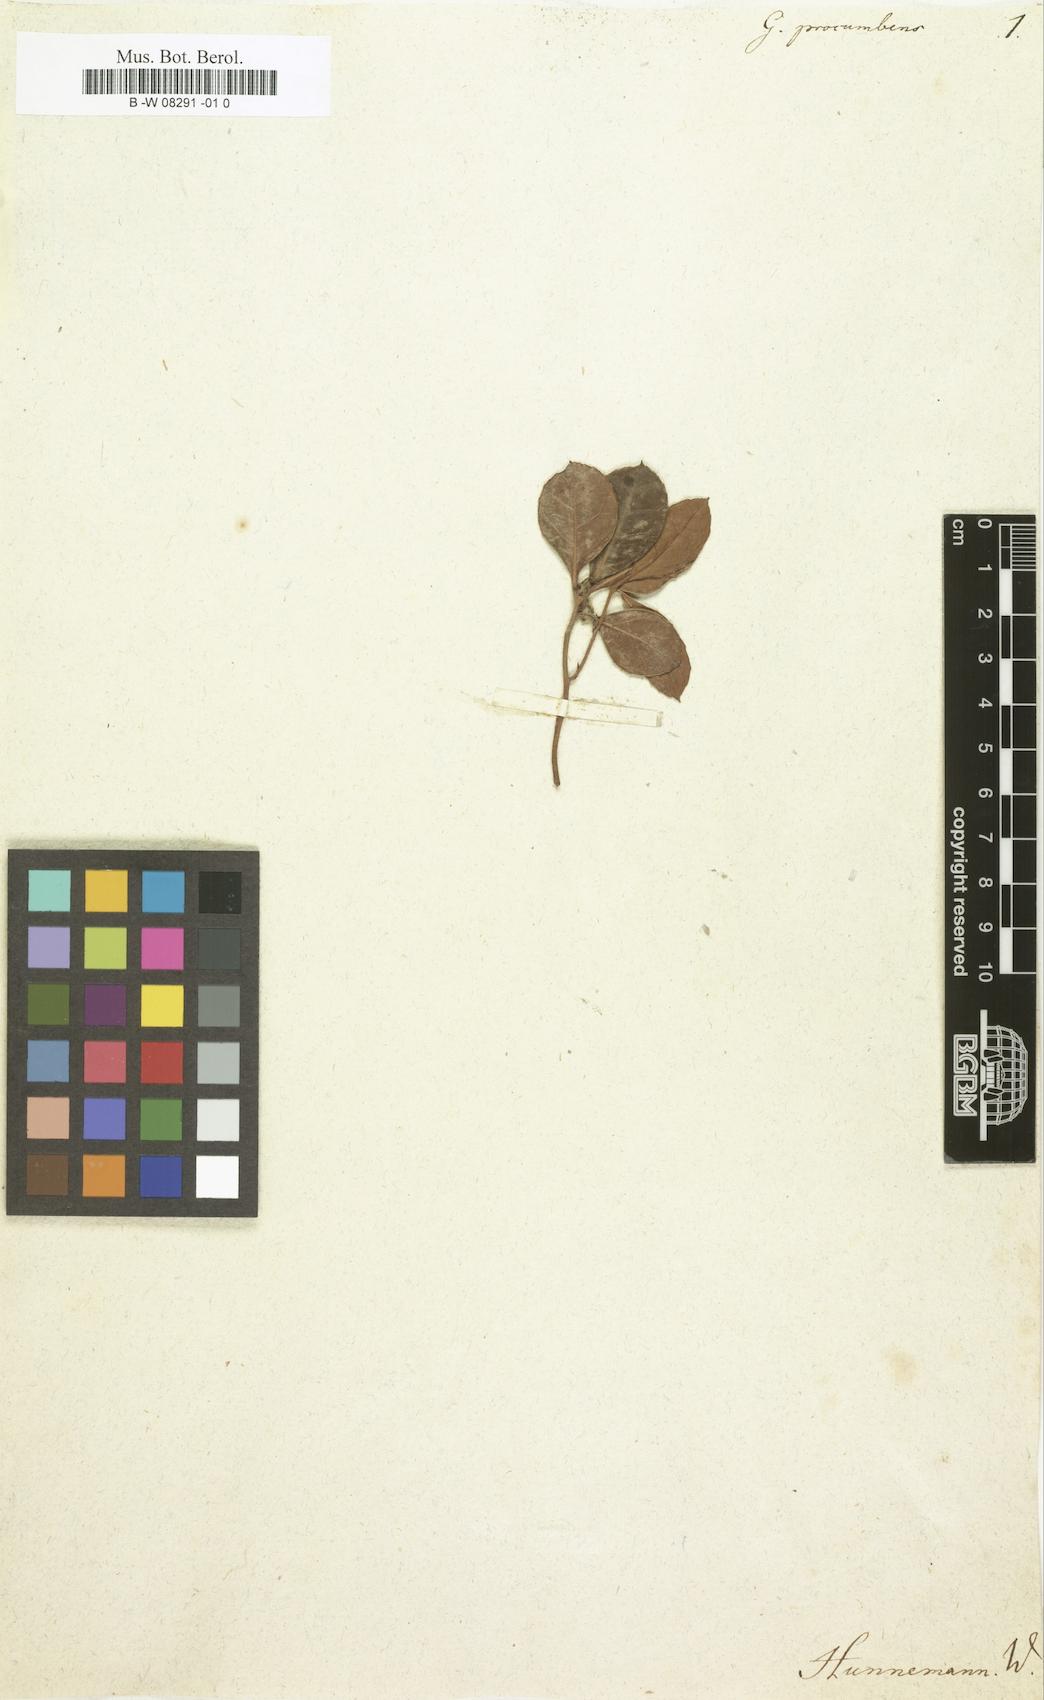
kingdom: Plantae
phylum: Tracheophyta
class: Magnoliopsida
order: Ericales
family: Ericaceae
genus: Gaultheria
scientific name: Gaultheria procumbens
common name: Checkerberry
